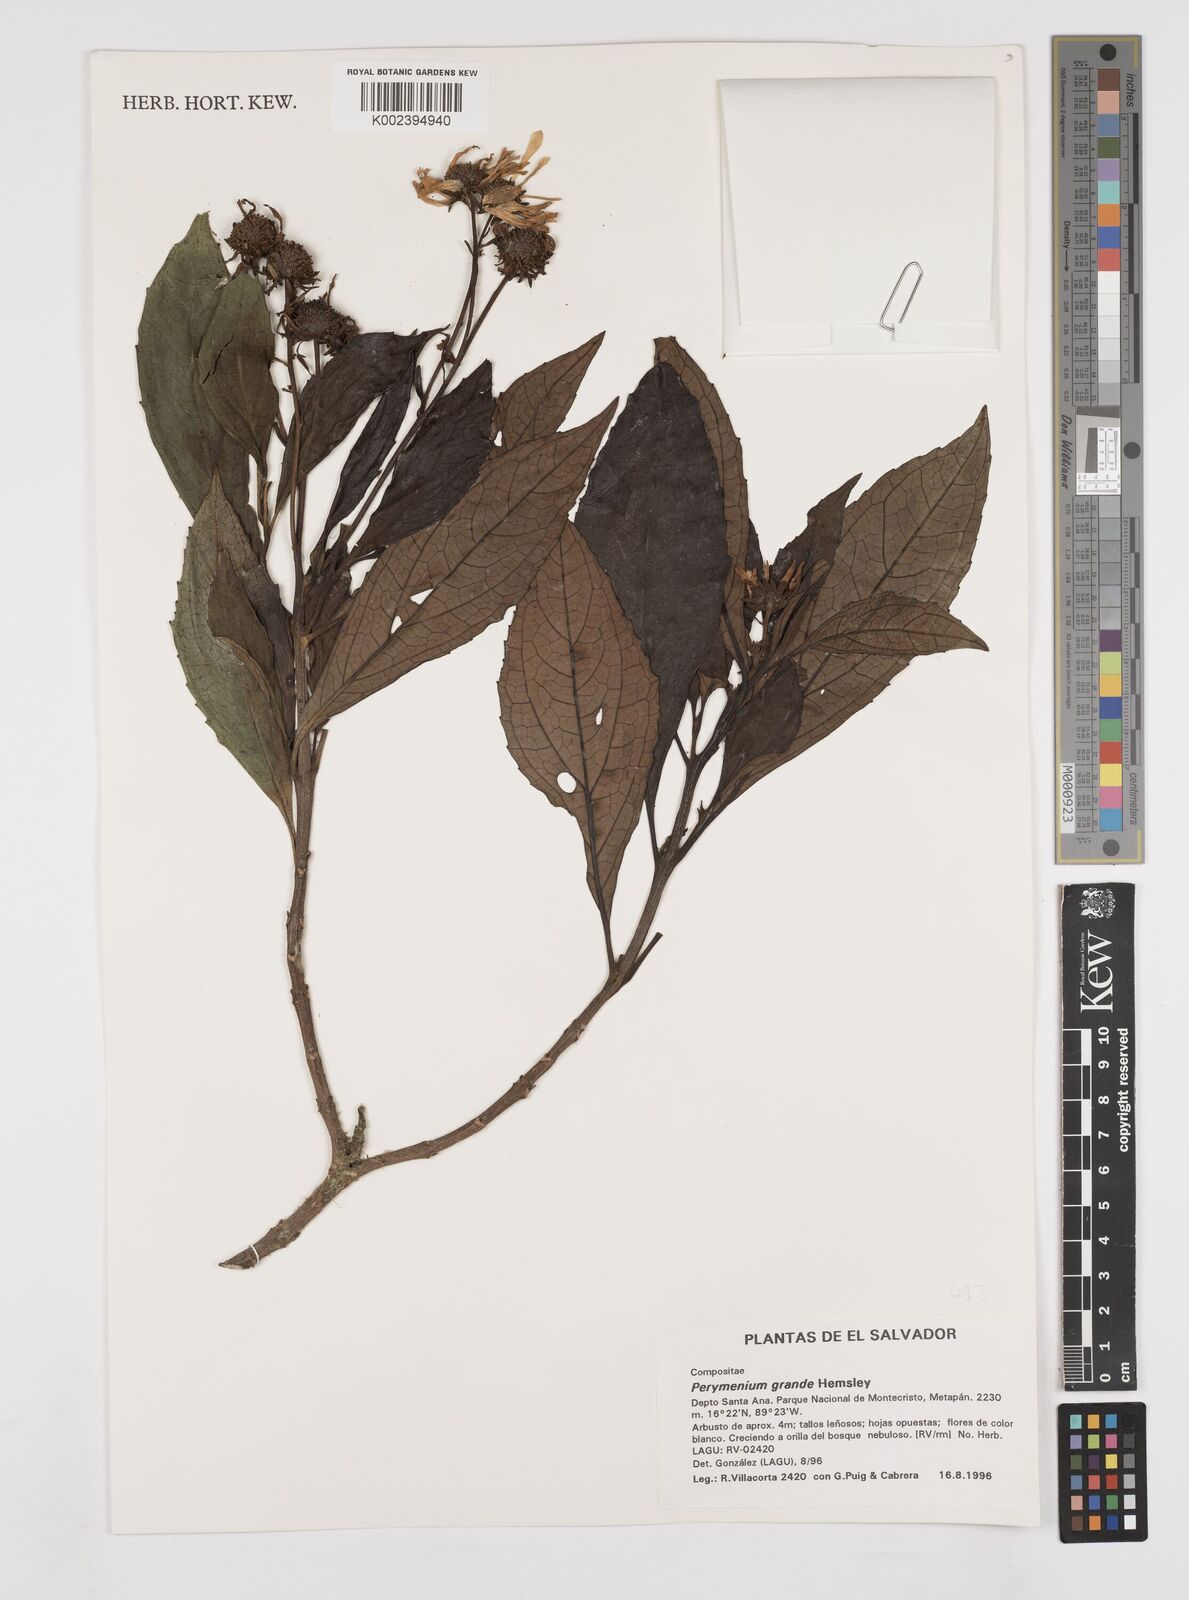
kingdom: Plantae
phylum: Tracheophyta
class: Magnoliopsida
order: Asterales
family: Asteraceae
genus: Perymenium
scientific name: Perymenium grande
